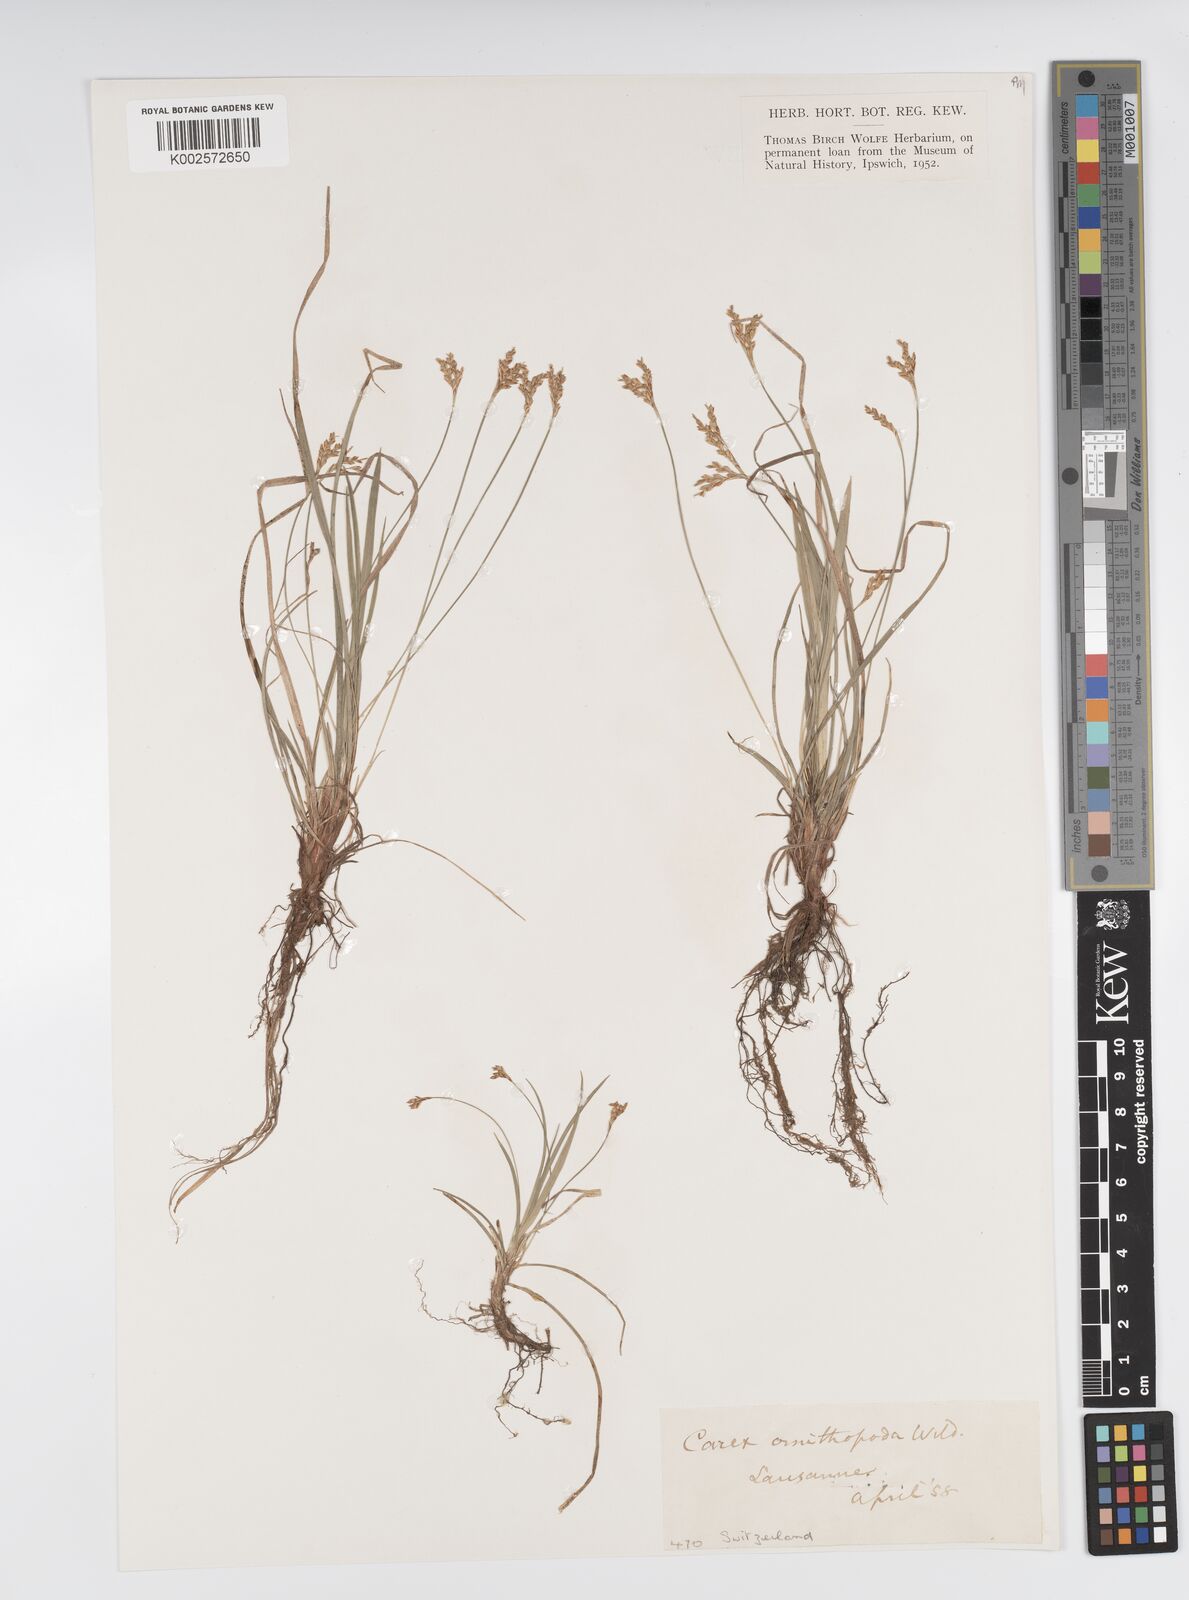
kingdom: Plantae
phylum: Tracheophyta
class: Liliopsida
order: Poales
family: Cyperaceae
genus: Carex
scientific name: Carex ornithopoda
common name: Bird's-foot sedge
